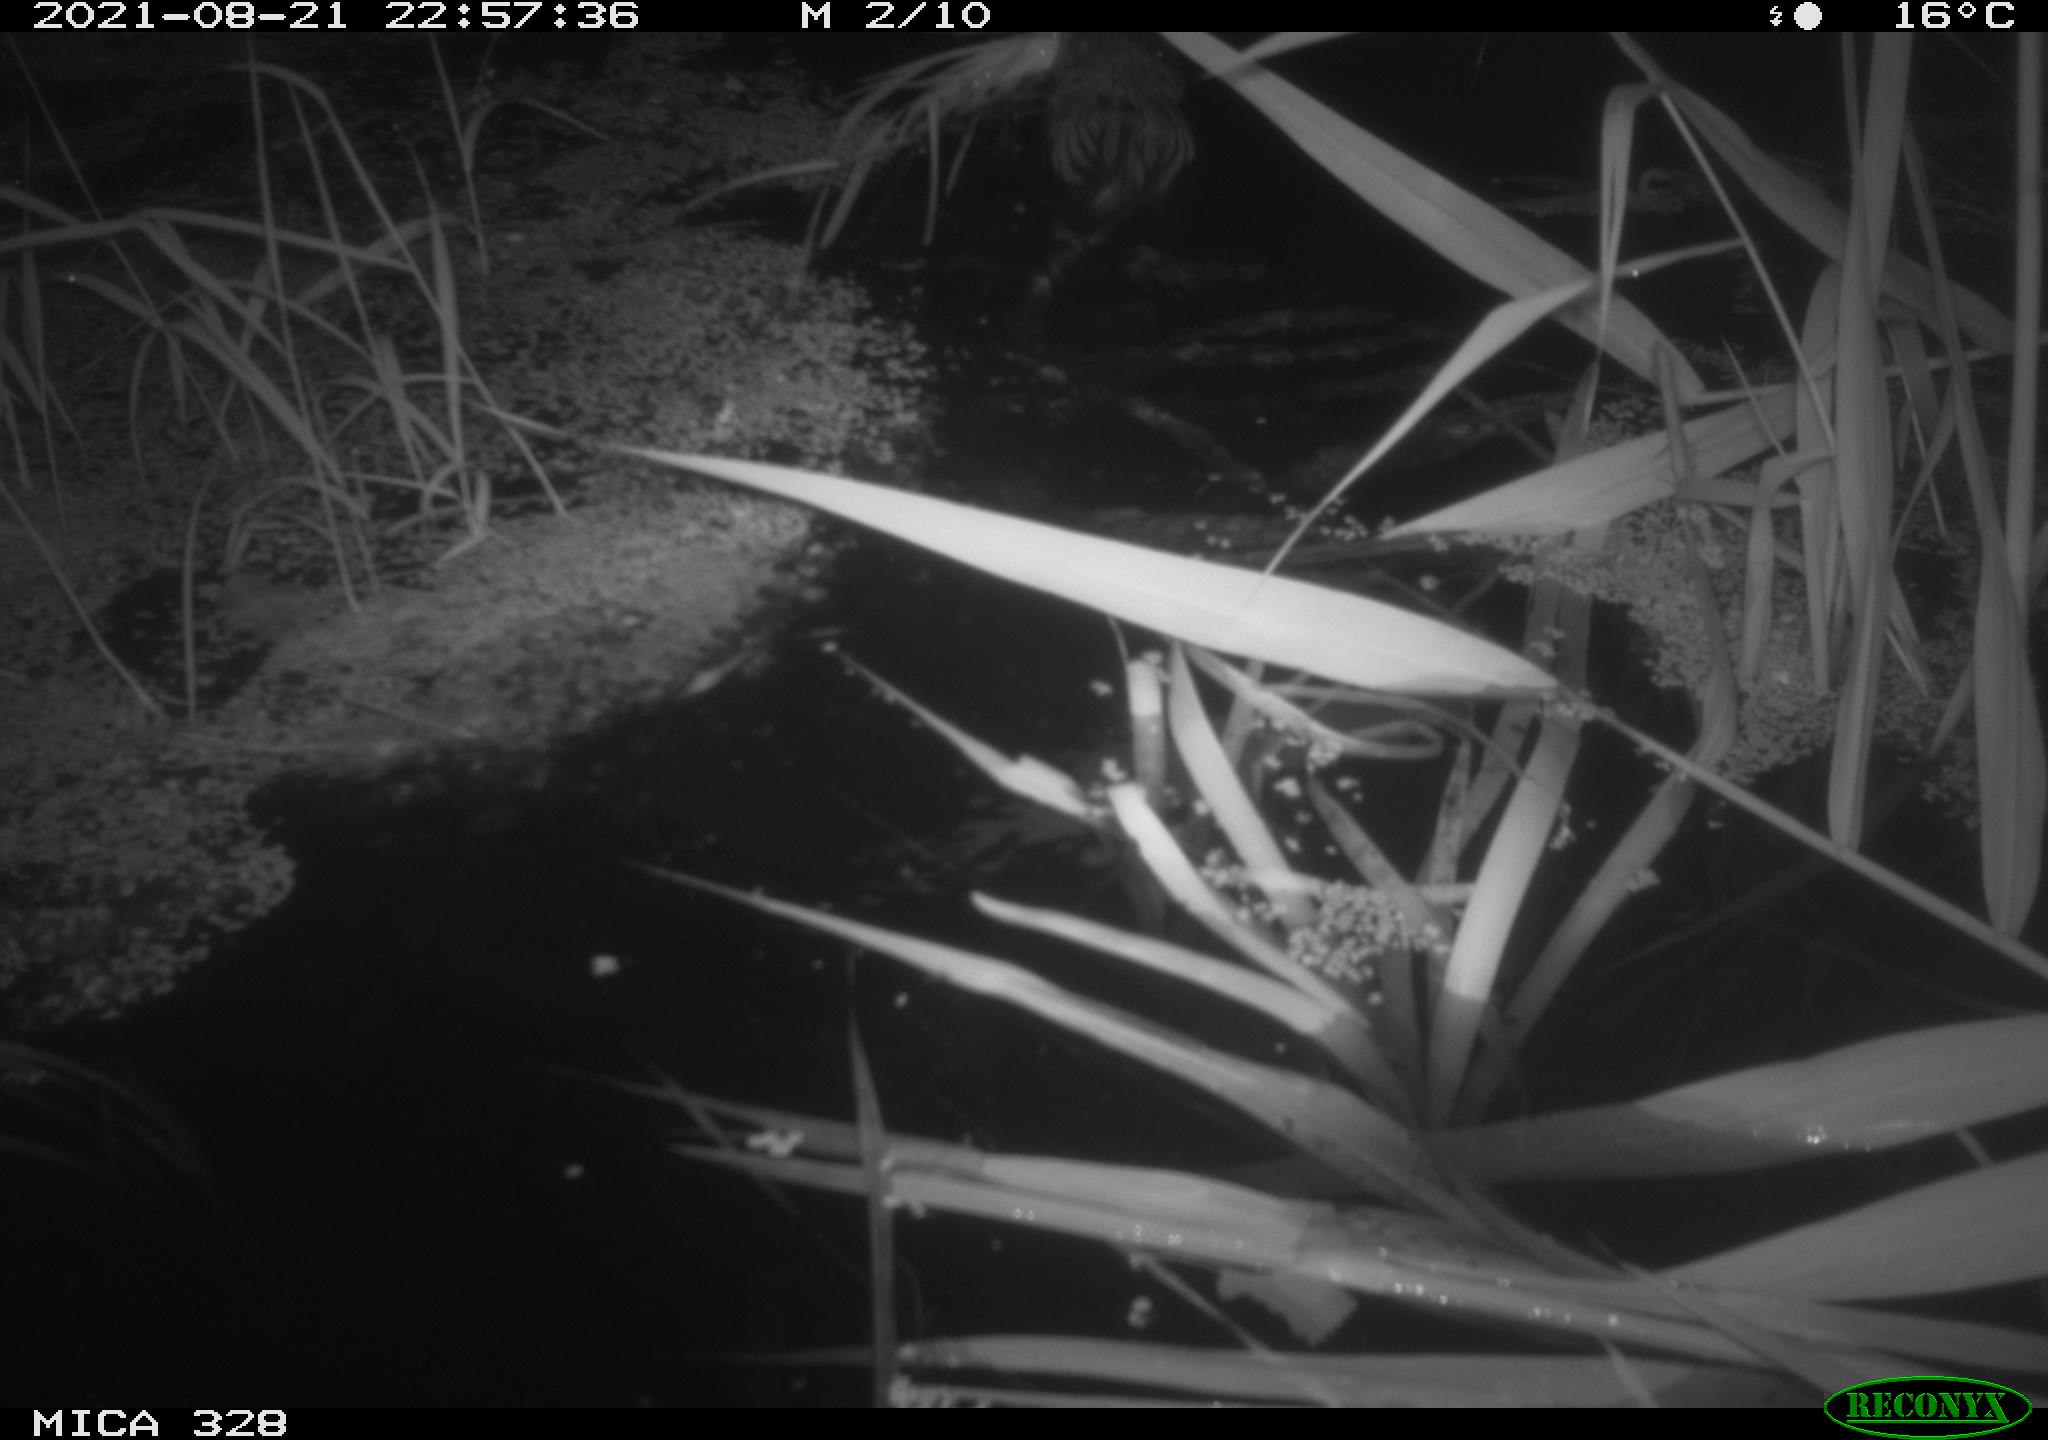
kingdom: Animalia
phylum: Chordata
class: Mammalia
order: Rodentia
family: Cricetidae
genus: Ondatra
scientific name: Ondatra zibethicus
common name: Muskrat
